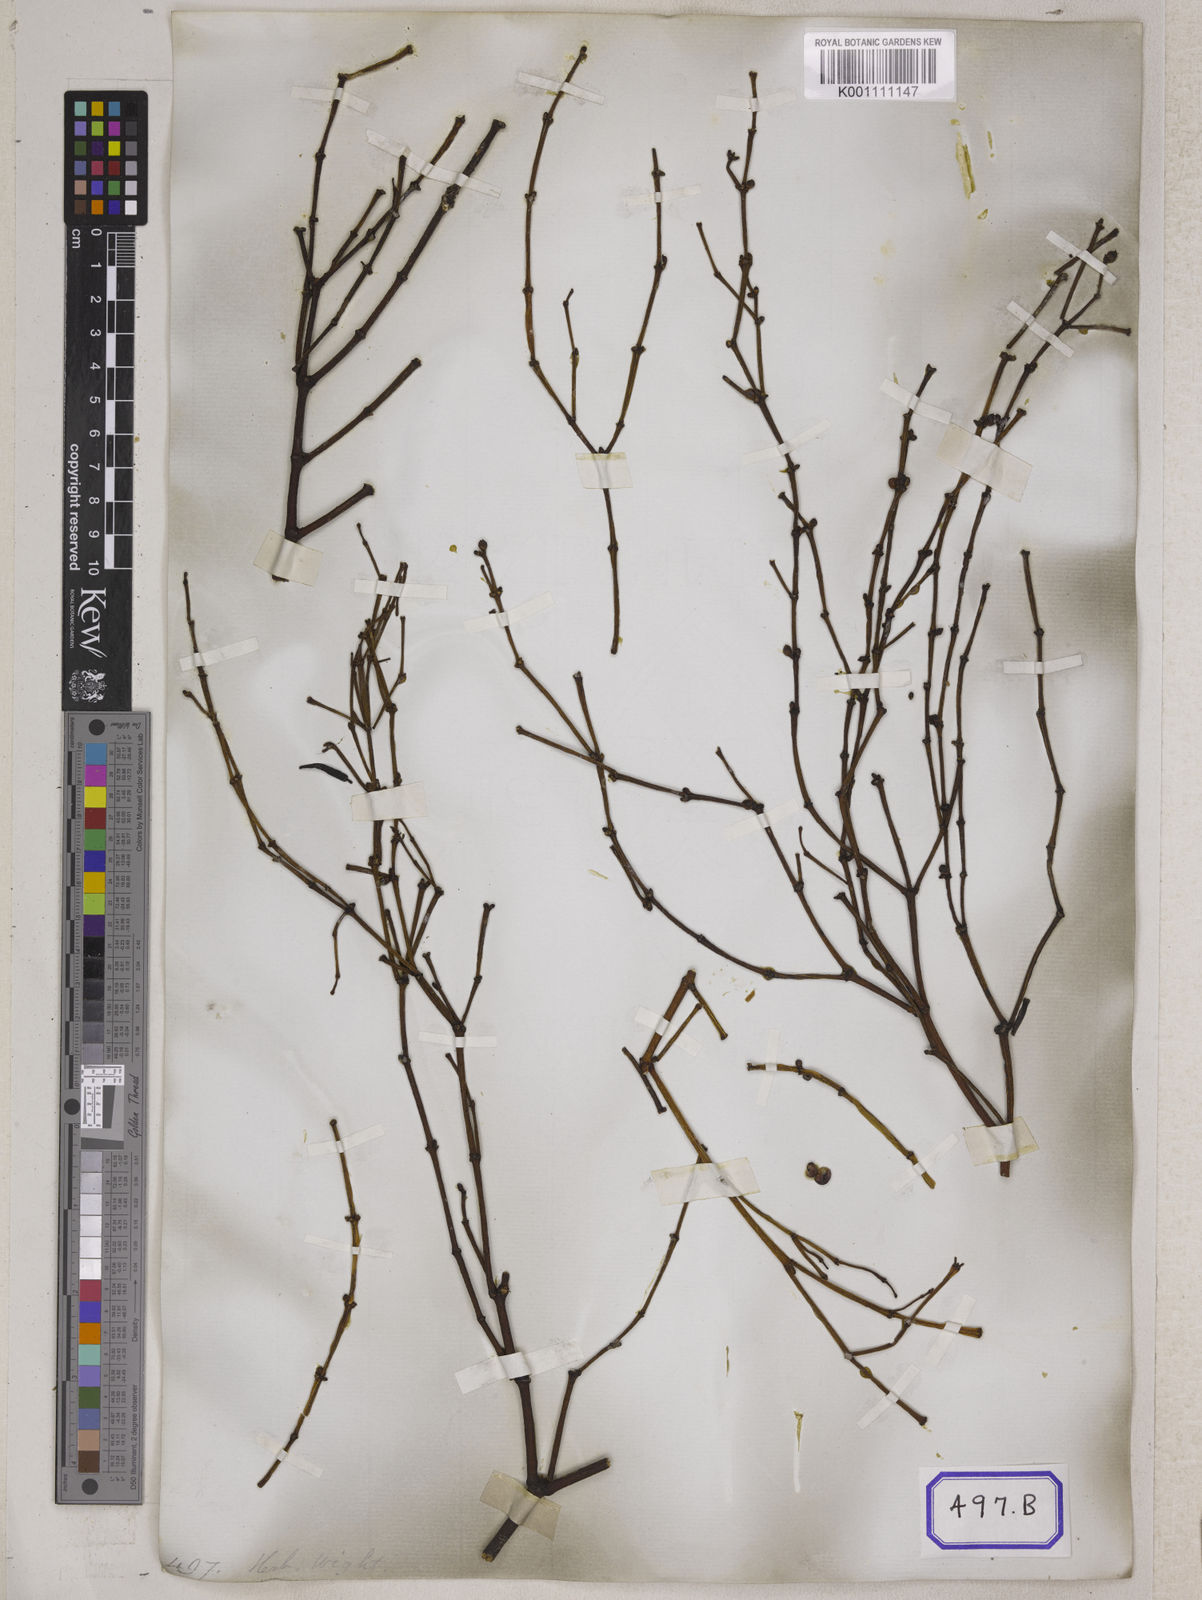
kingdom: Plantae
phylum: Tracheophyta
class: Magnoliopsida
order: Santalales
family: Viscaceae
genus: Viscum
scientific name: Viscum
